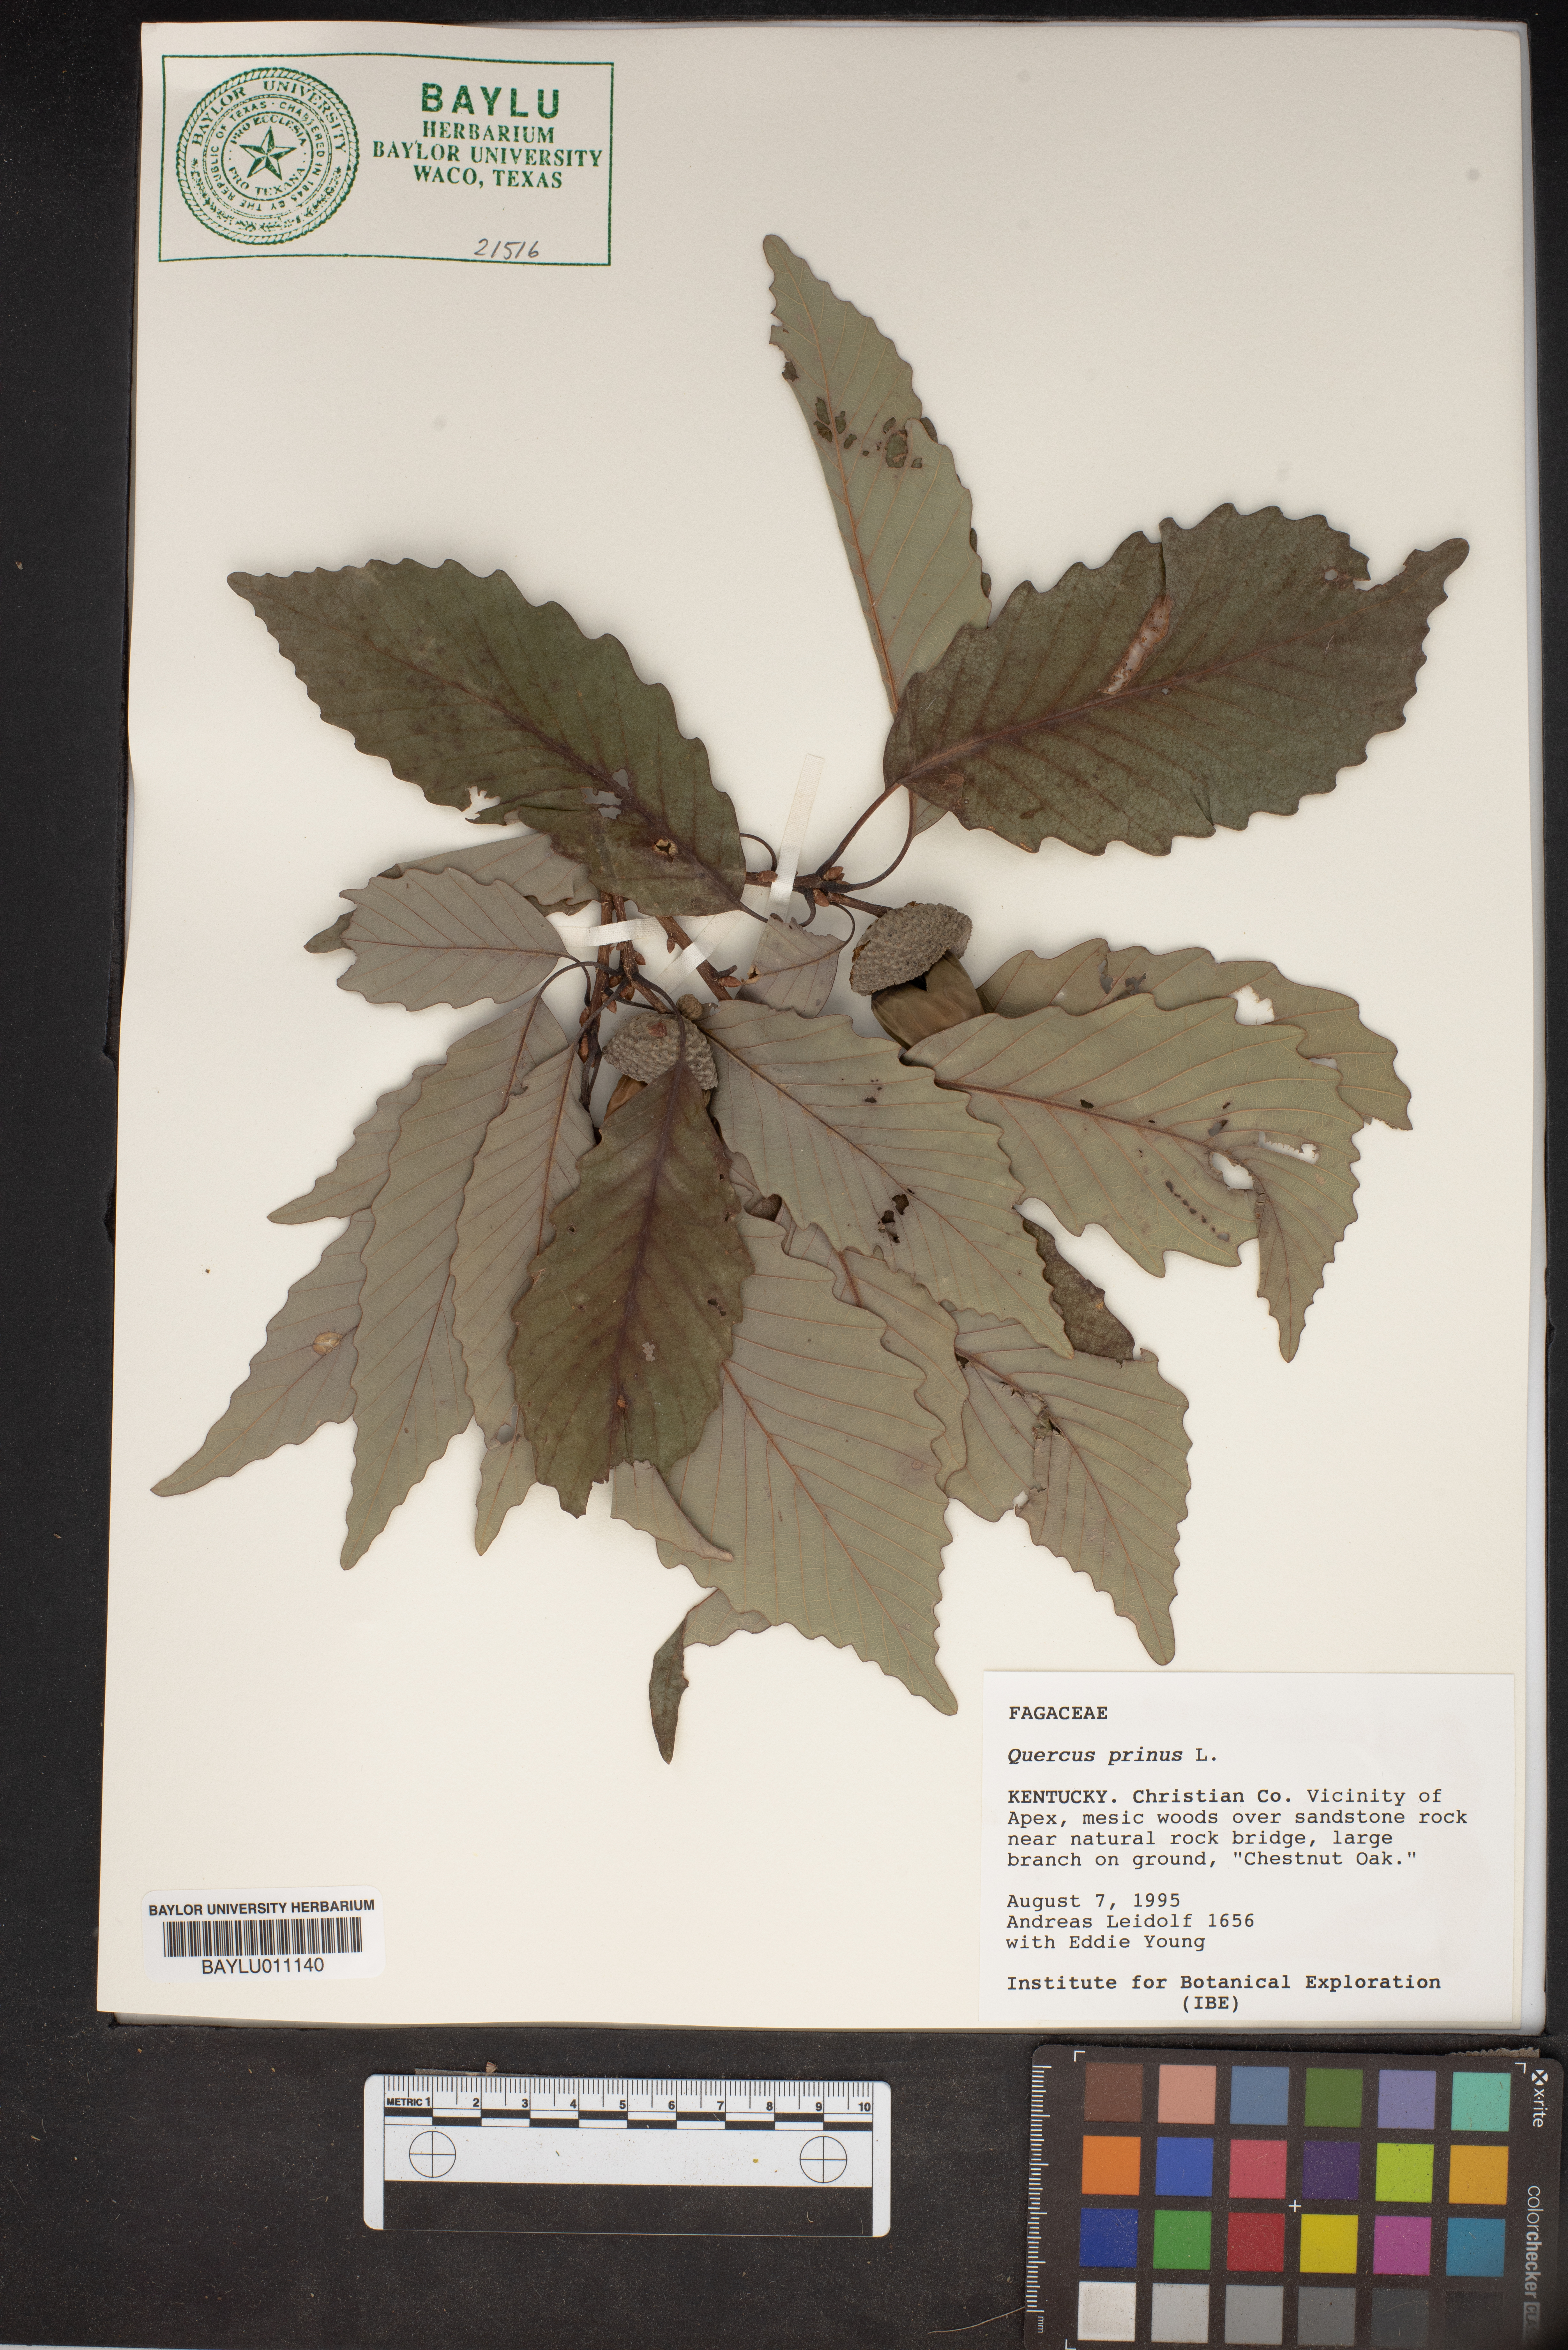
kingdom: Plantae
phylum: Tracheophyta
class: Magnoliopsida
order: Fagales
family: Fagaceae
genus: Quercus
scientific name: Quercus michauxii
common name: Swamp chestnut oak
